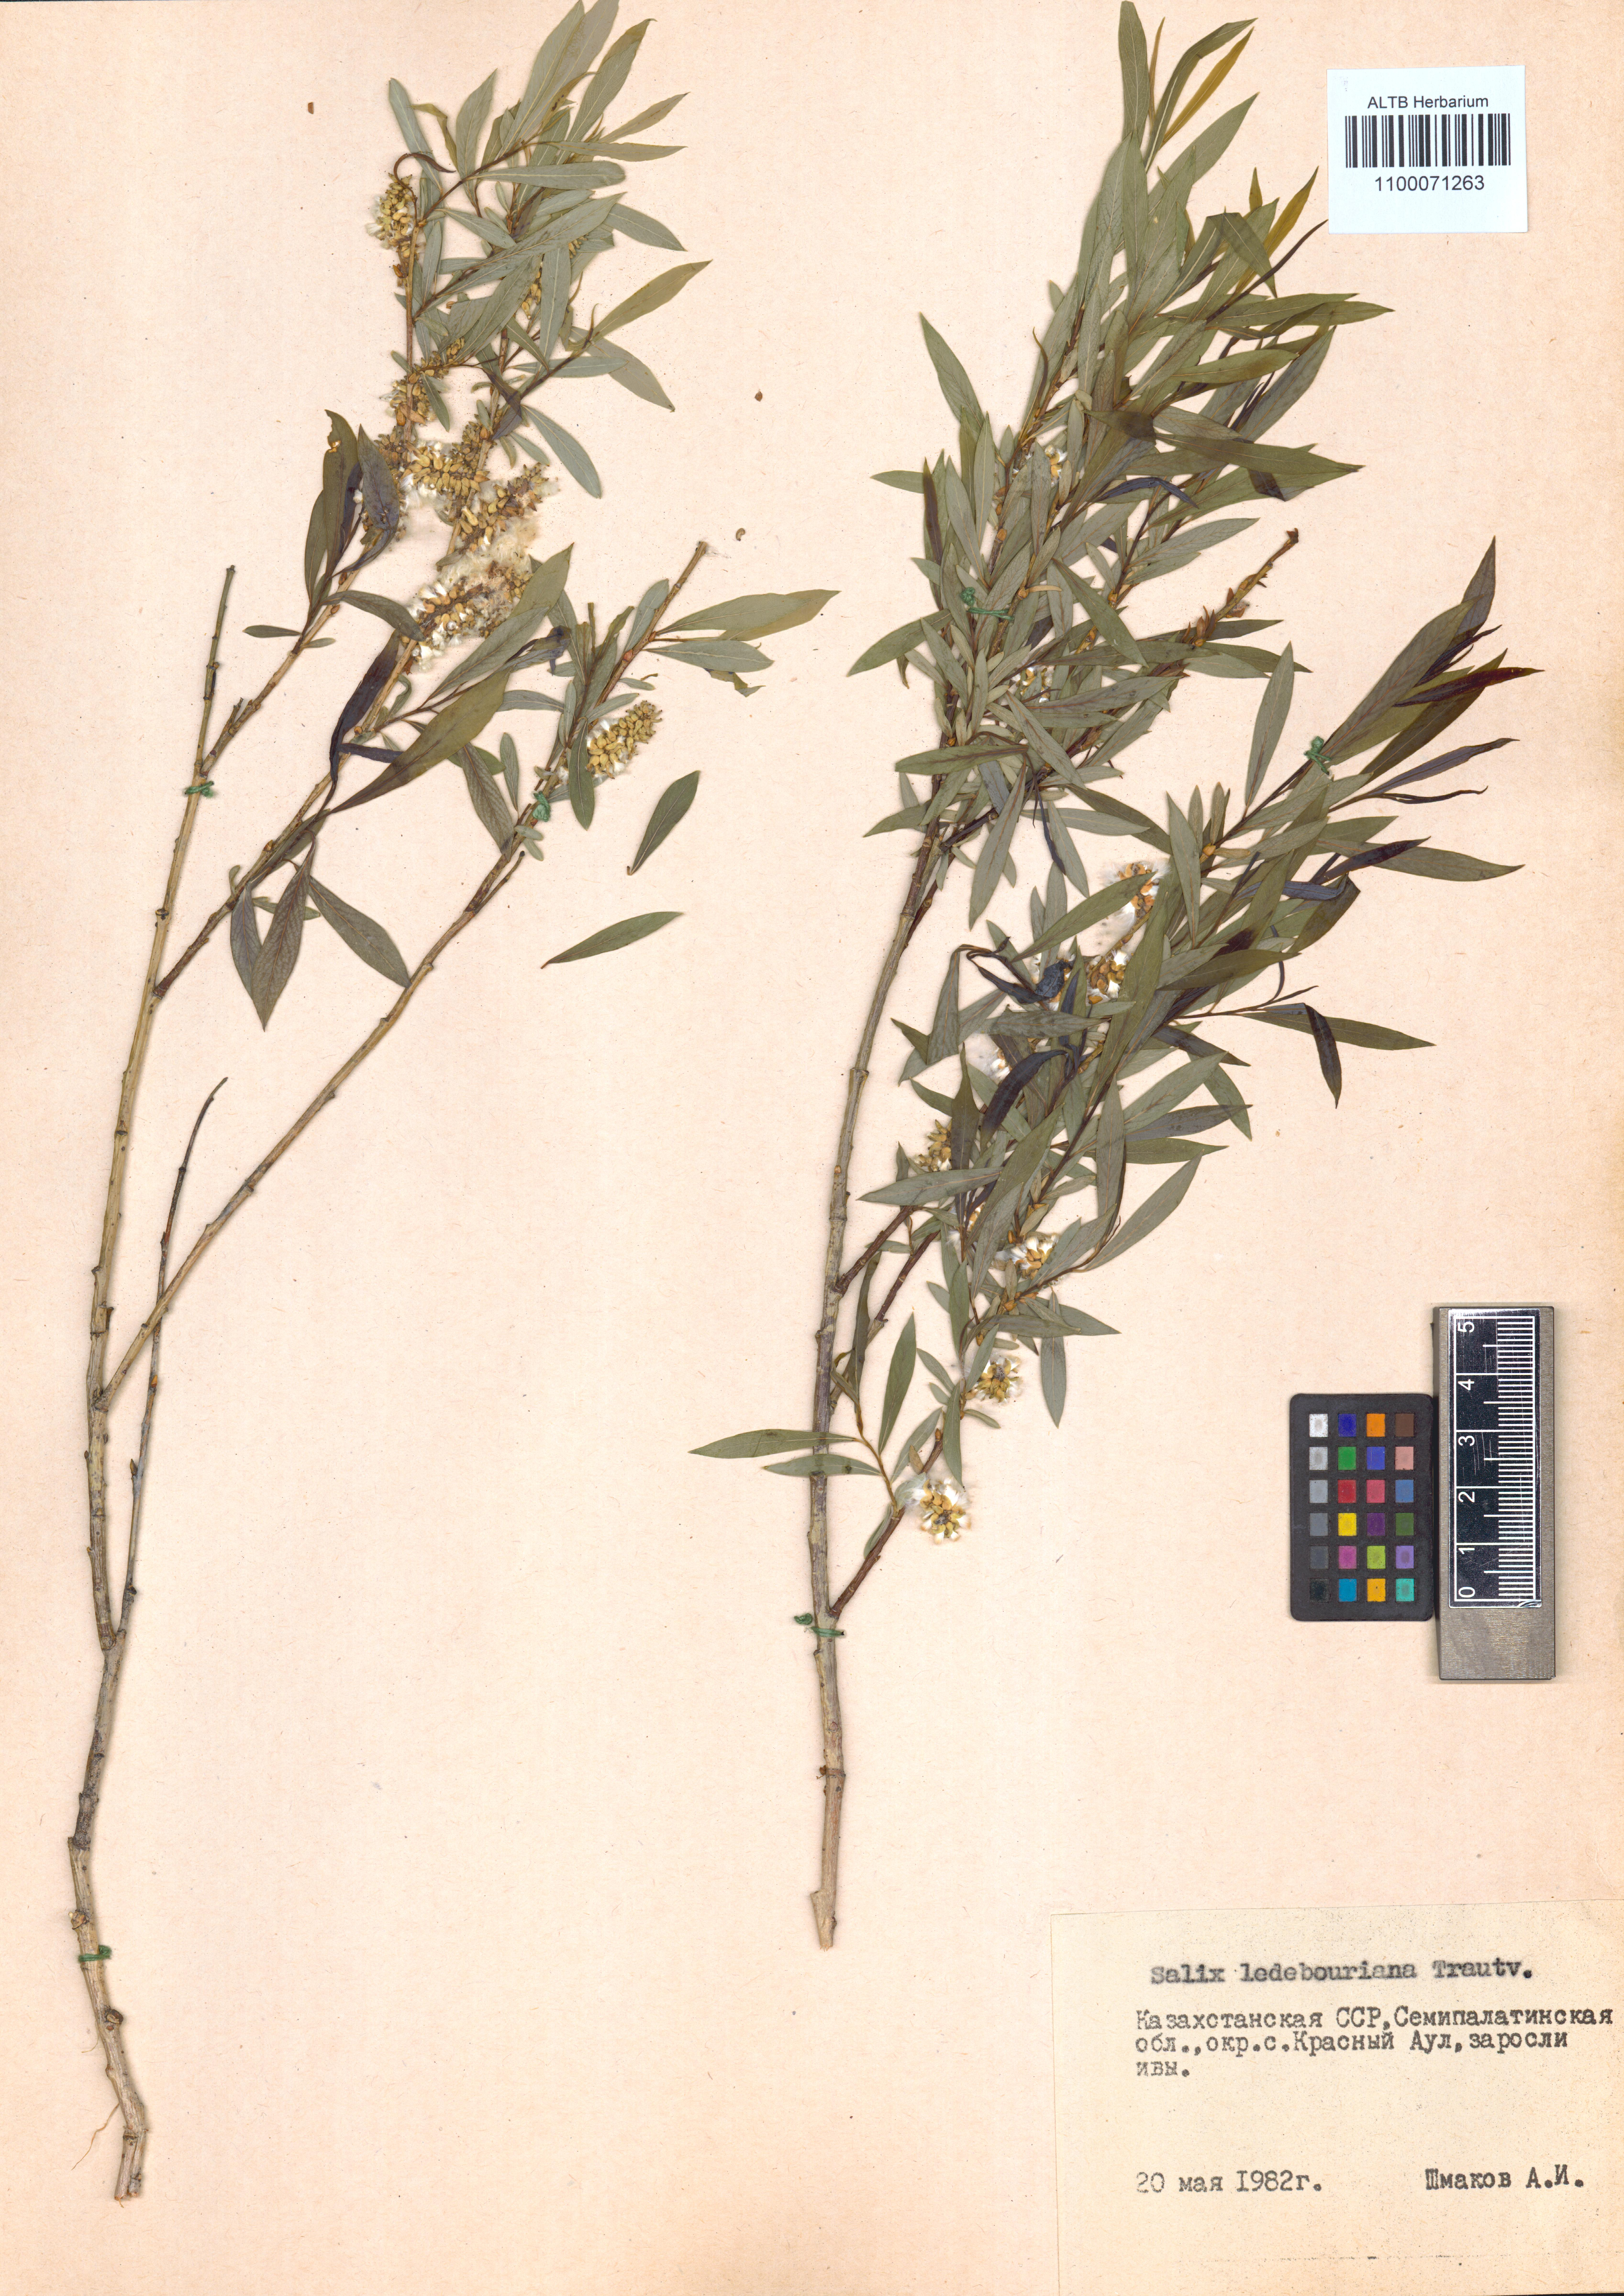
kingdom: Plantae
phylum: Tracheophyta
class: Magnoliopsida
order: Malpighiales
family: Salicaceae
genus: Salix
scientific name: Salix ledebouriana
